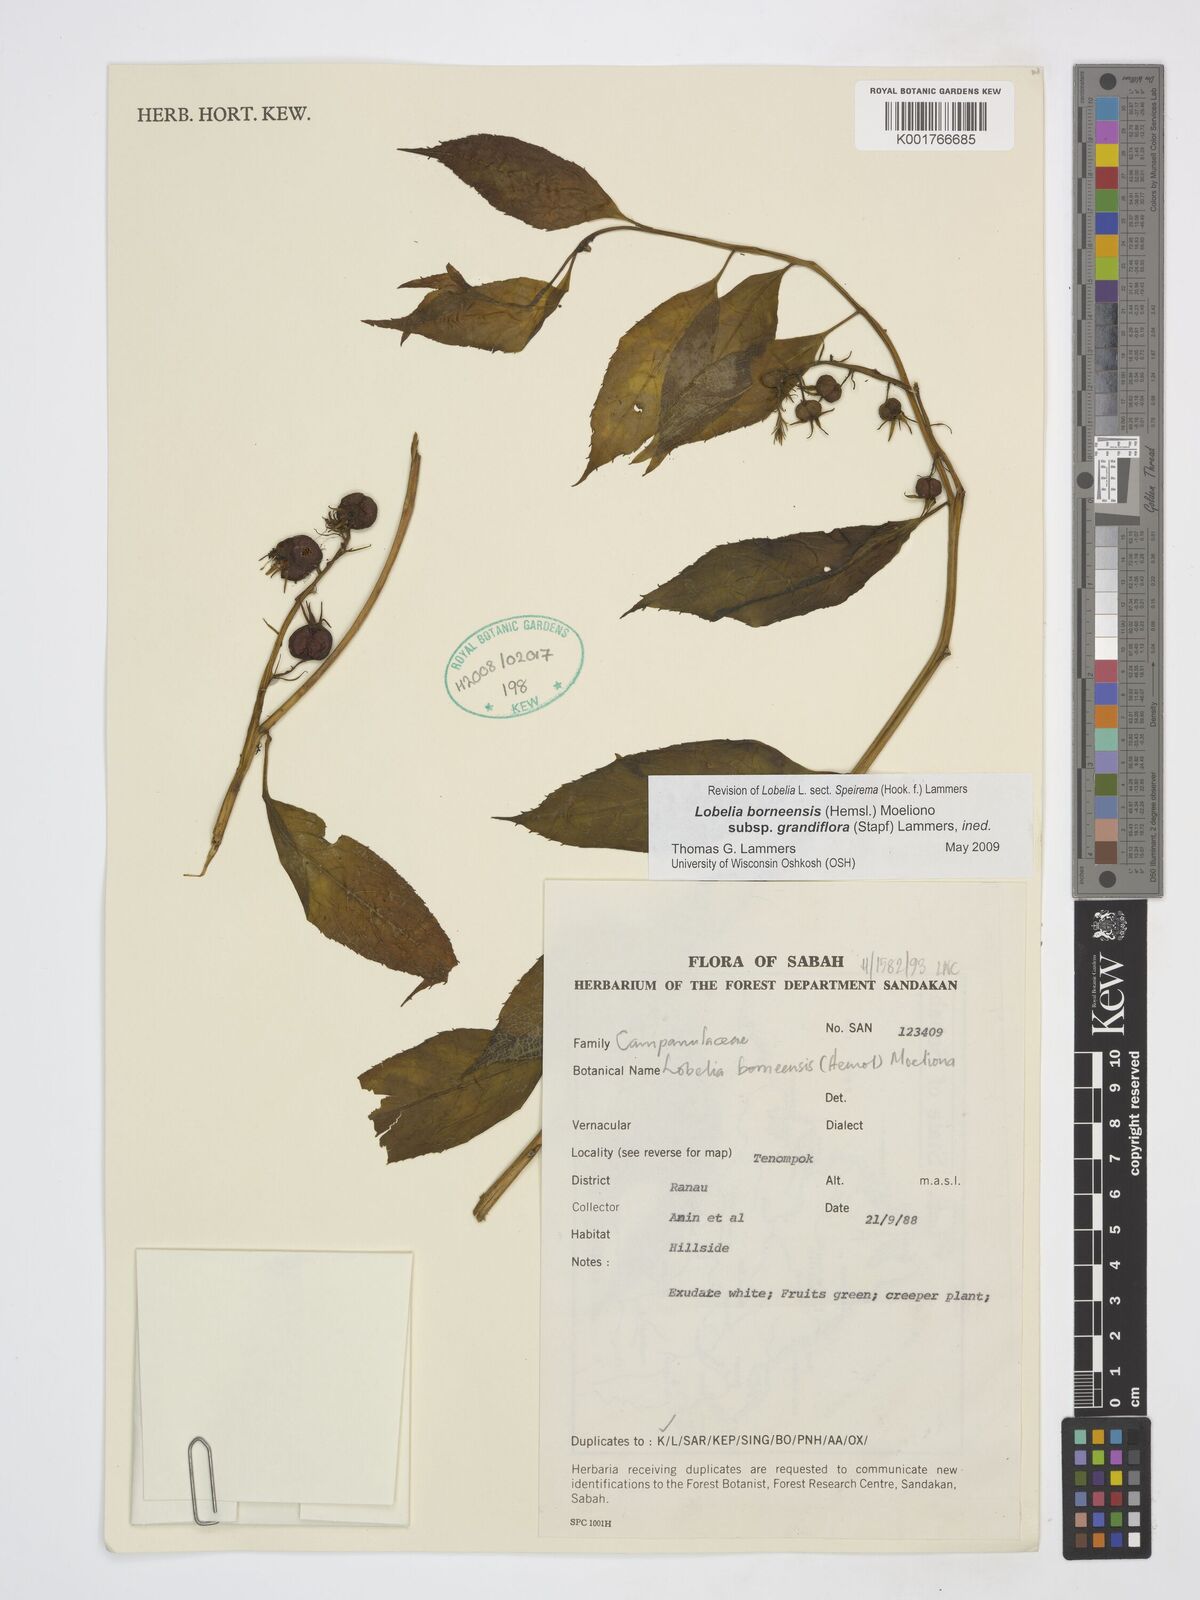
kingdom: Plantae
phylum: Tracheophyta
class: Magnoliopsida
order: Asterales
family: Campanulaceae
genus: Lobelia
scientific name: Lobelia borneensis
